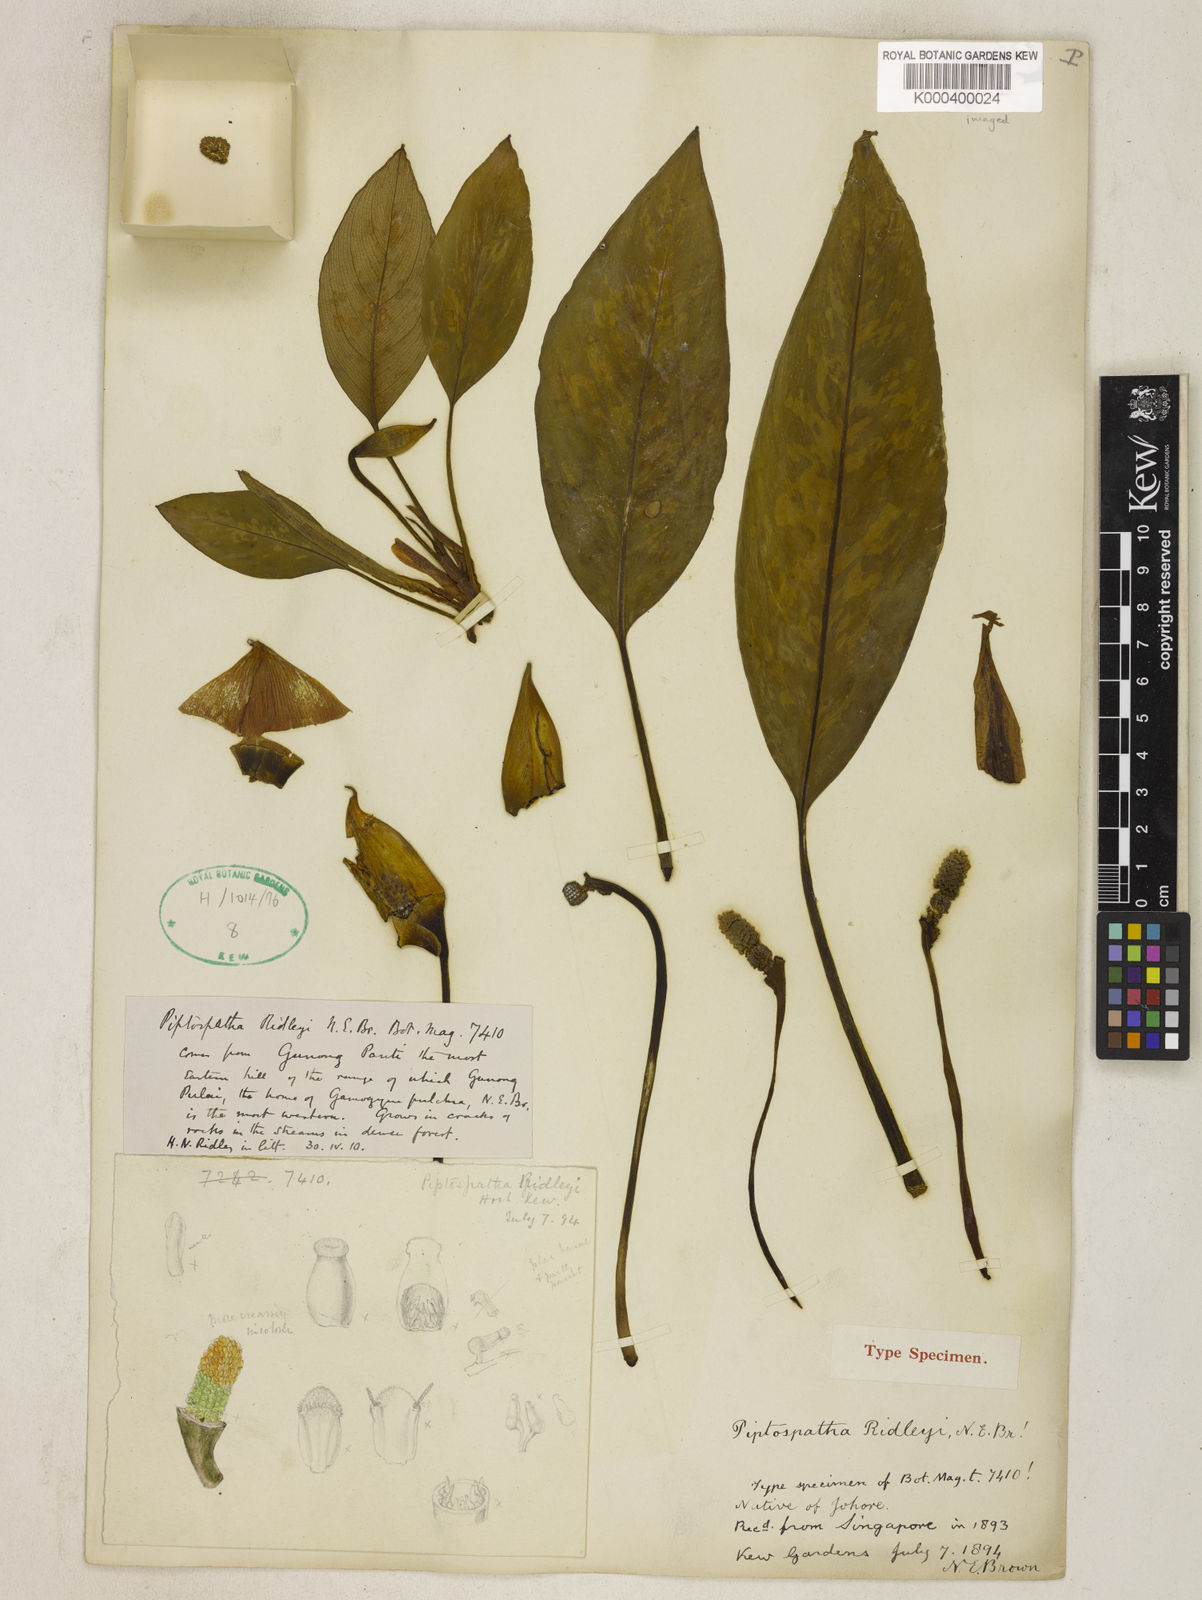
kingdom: Plantae
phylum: Tracheophyta
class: Liliopsida
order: Alismatales
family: Araceae
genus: Kiewia
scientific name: Kiewia ridleyi
